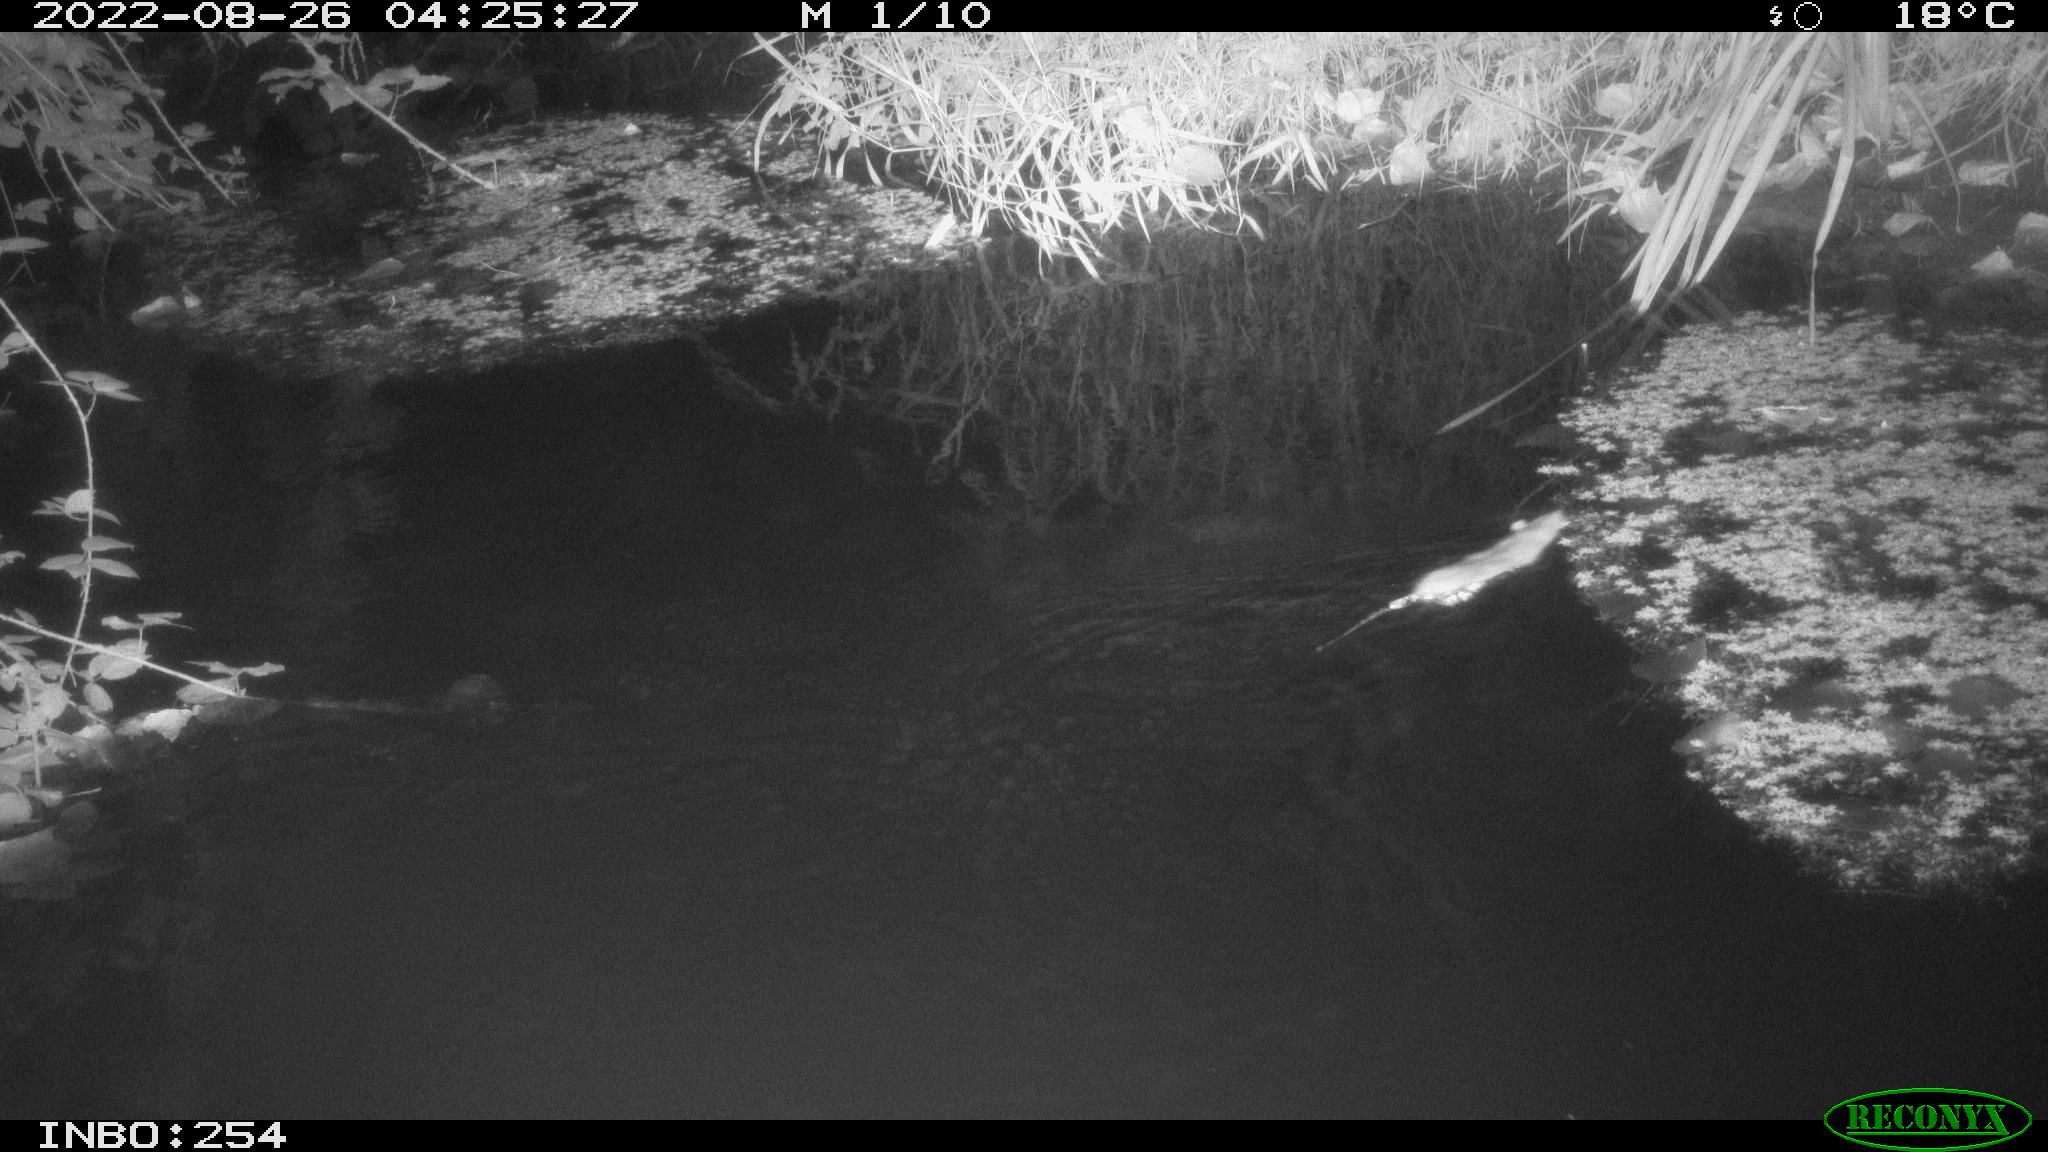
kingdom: Animalia
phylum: Chordata
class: Mammalia
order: Rodentia
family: Muridae
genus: Rattus
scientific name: Rattus norvegicus
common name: Brown rat
